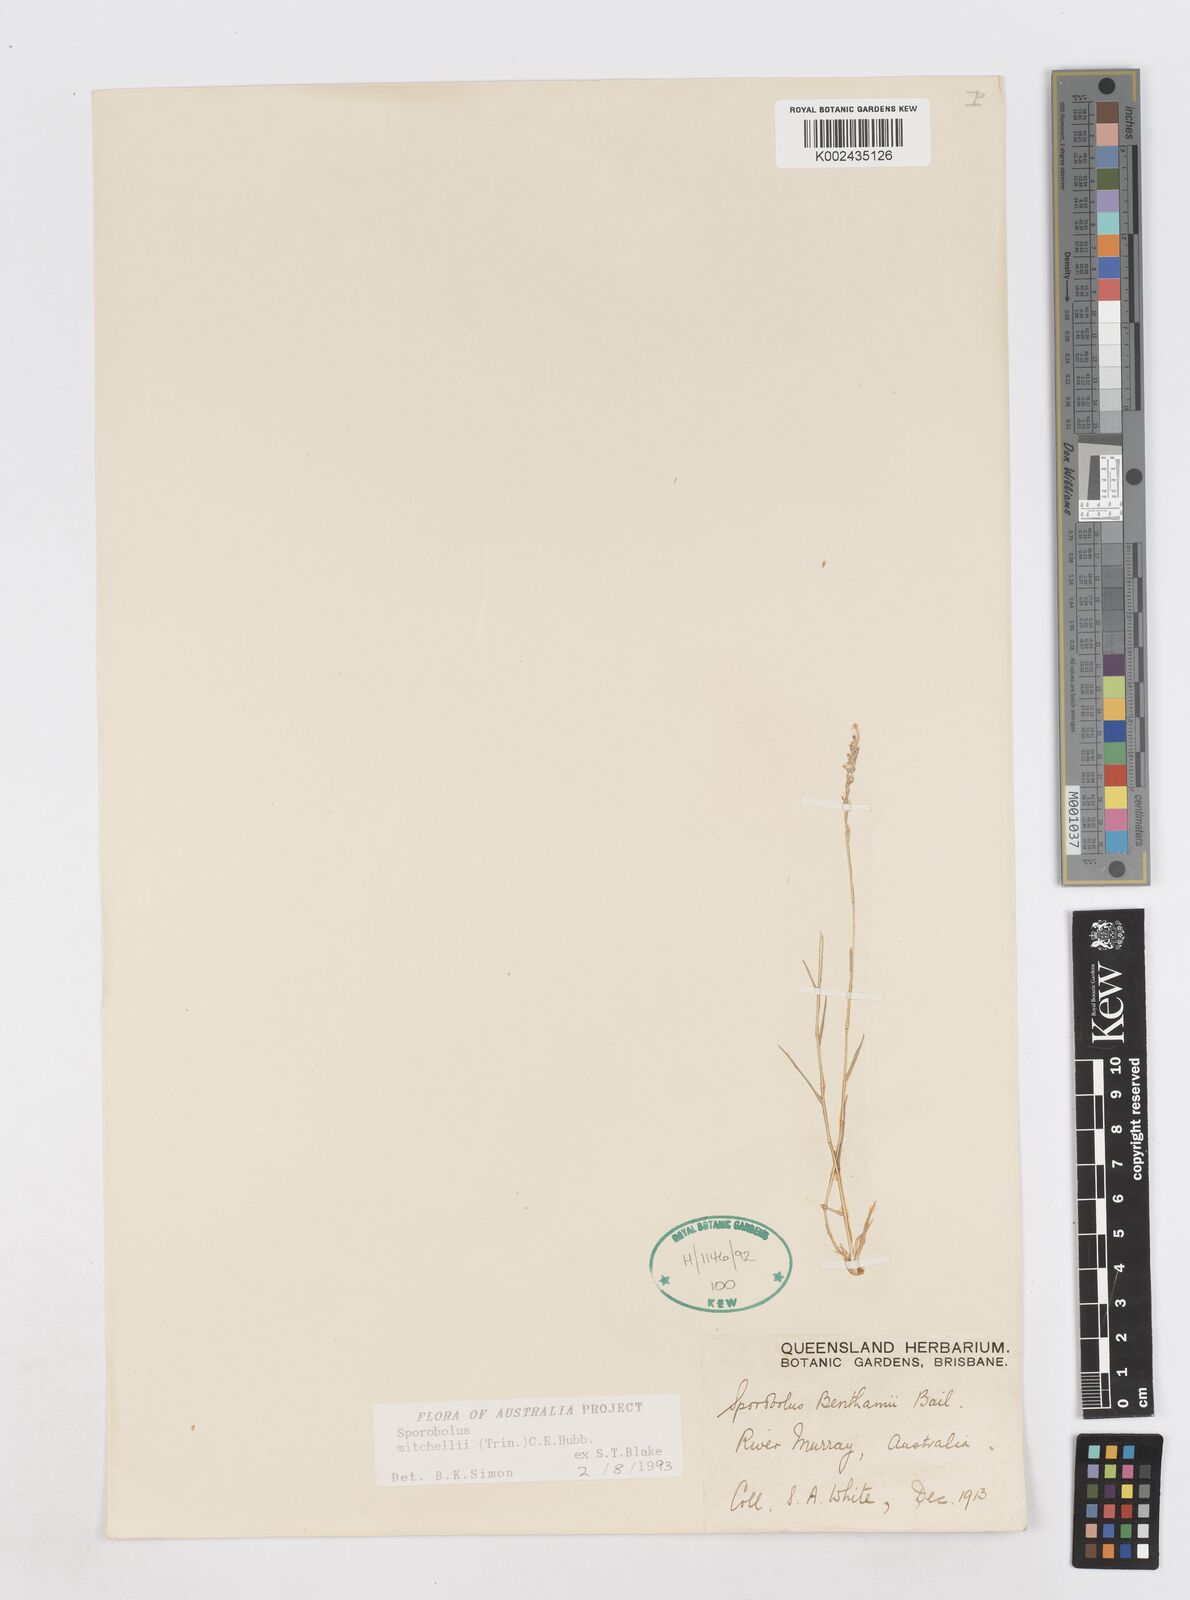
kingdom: Plantae
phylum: Tracheophyta
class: Liliopsida
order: Poales
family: Poaceae
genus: Sporobolus
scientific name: Sporobolus mitchellii
